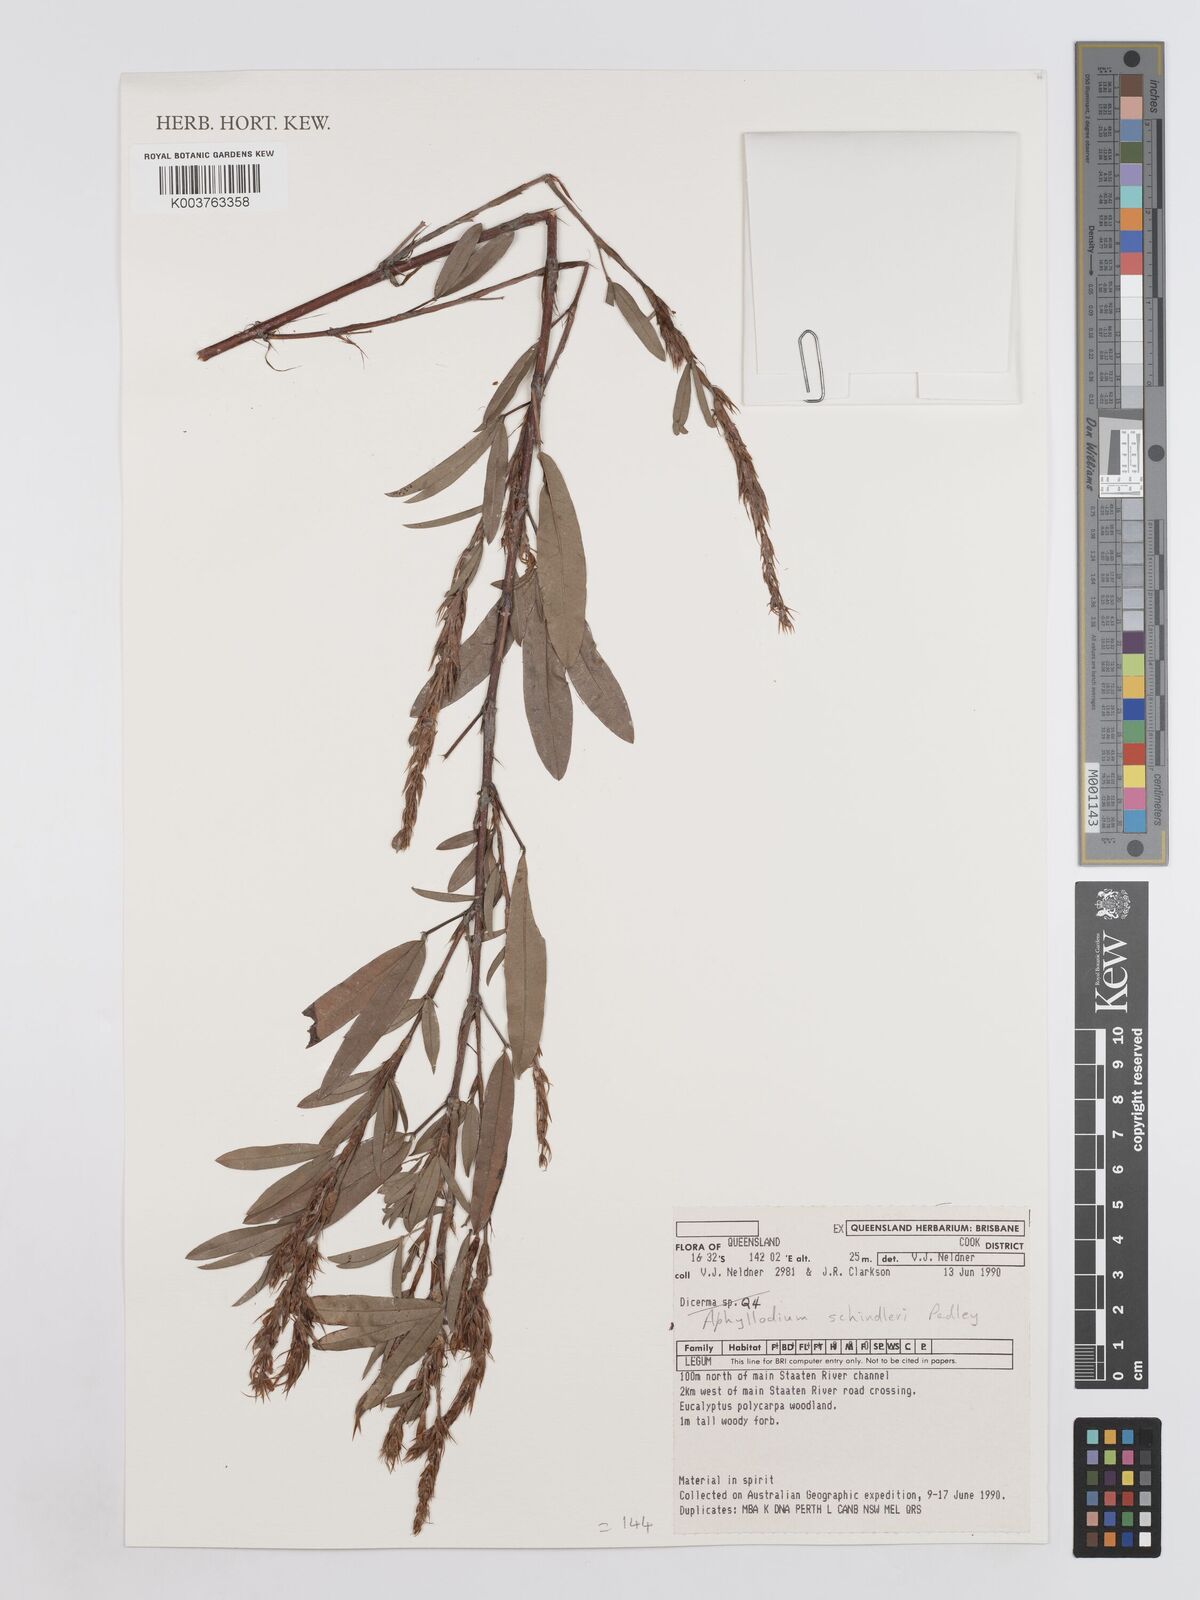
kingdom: Plantae
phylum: Tracheophyta
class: Magnoliopsida
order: Fabales
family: Fabaceae
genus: Hedysarum
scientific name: Hedysarum
